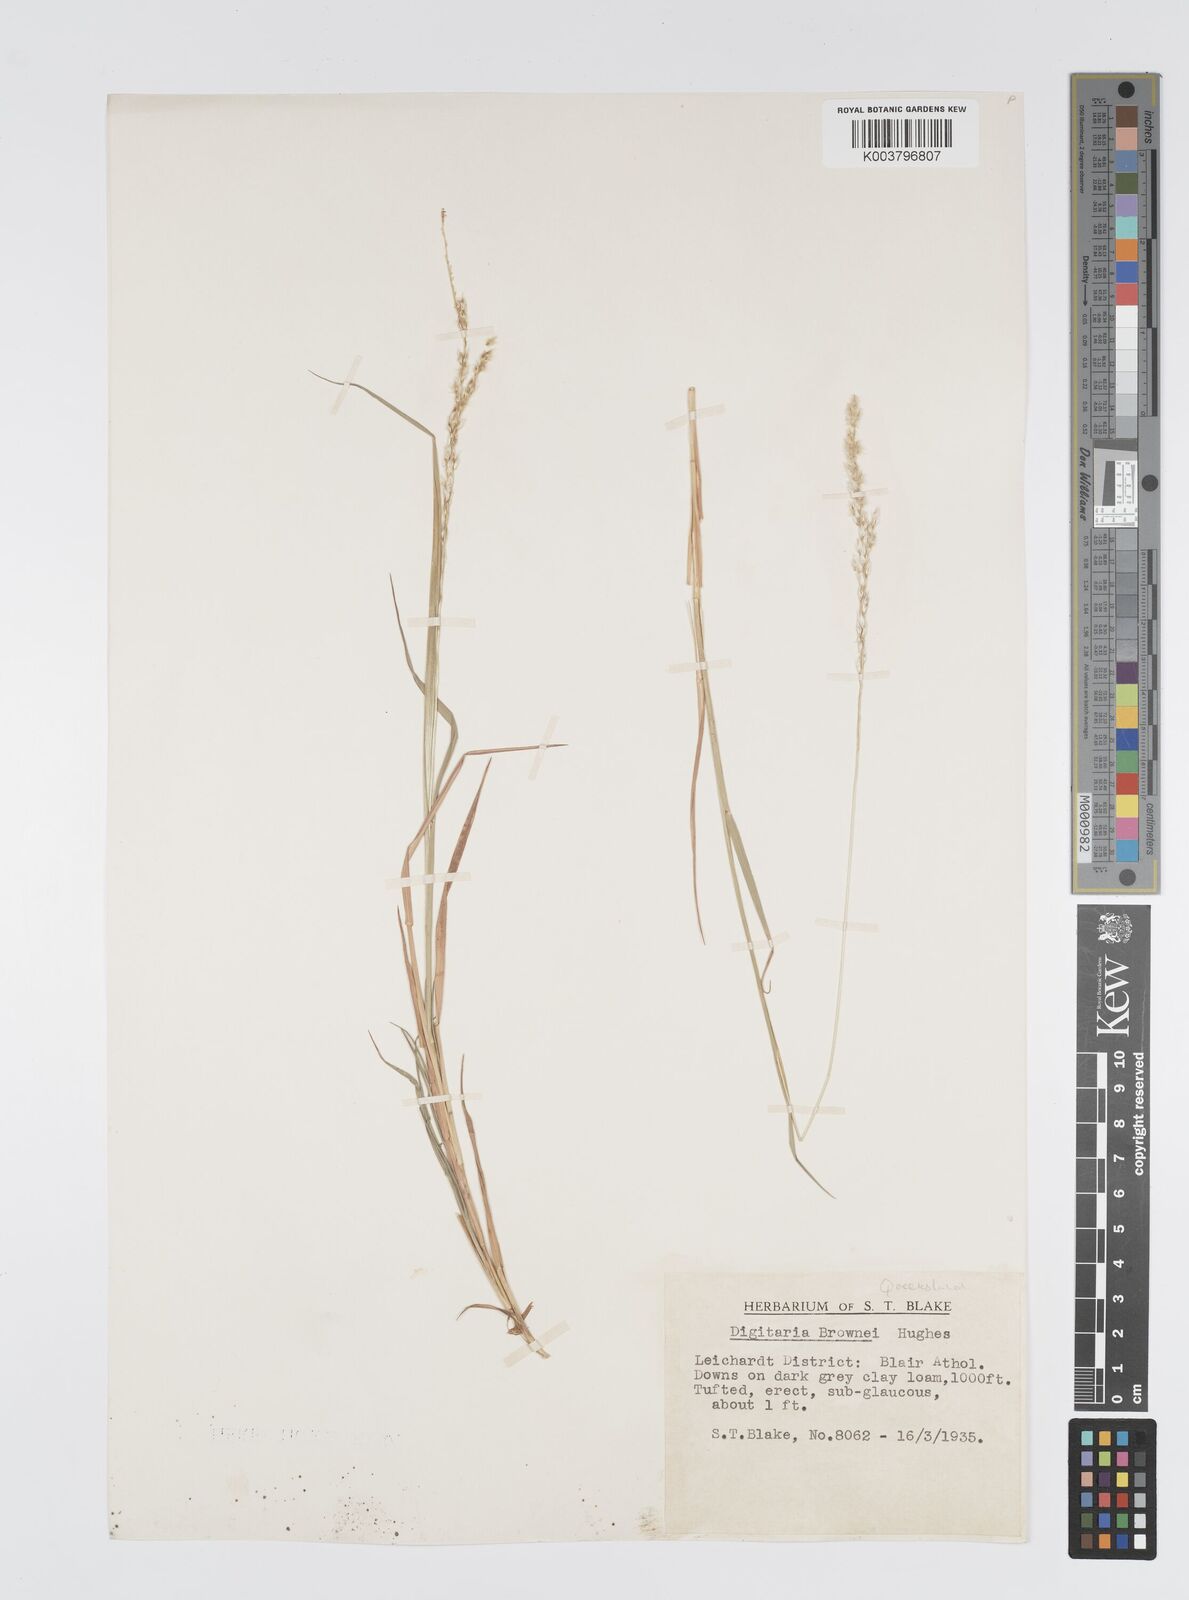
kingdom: Plantae
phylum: Tracheophyta
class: Liliopsida
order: Poales
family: Poaceae
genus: Digitaria
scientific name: Digitaria brownii
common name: Cotton grass
